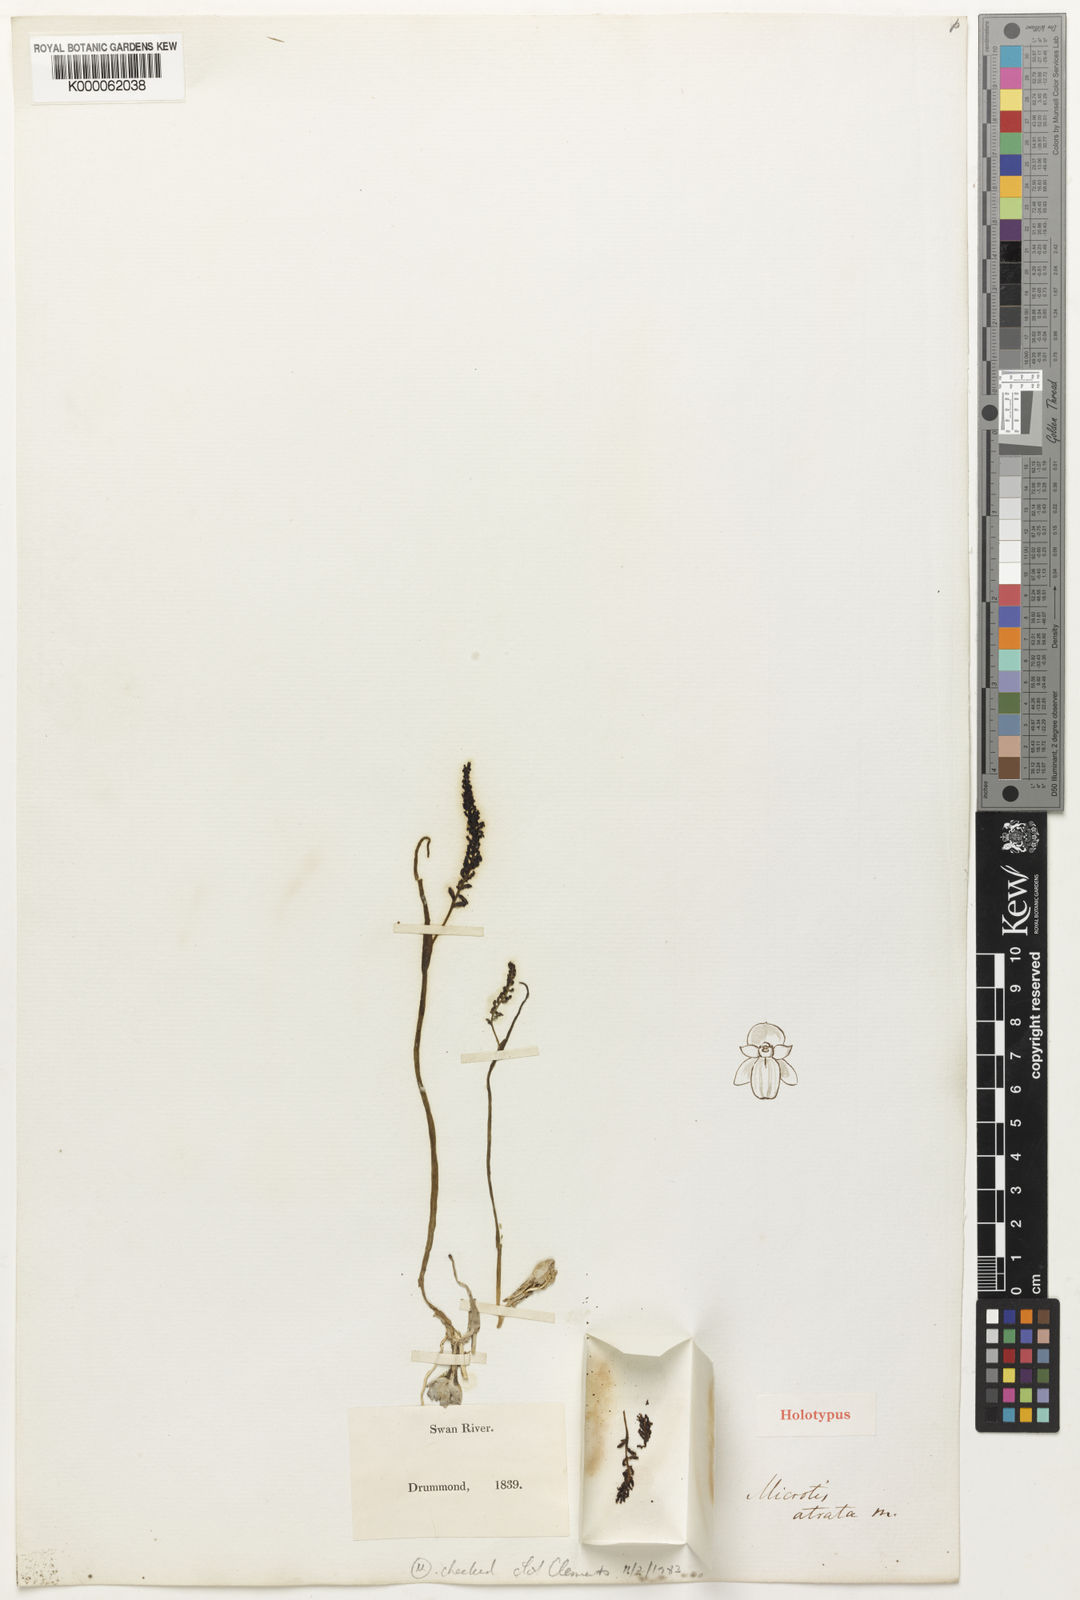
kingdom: Plantae
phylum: Tracheophyta
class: Liliopsida
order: Asparagales
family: Orchidaceae
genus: Microtis
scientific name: Microtis atrata
